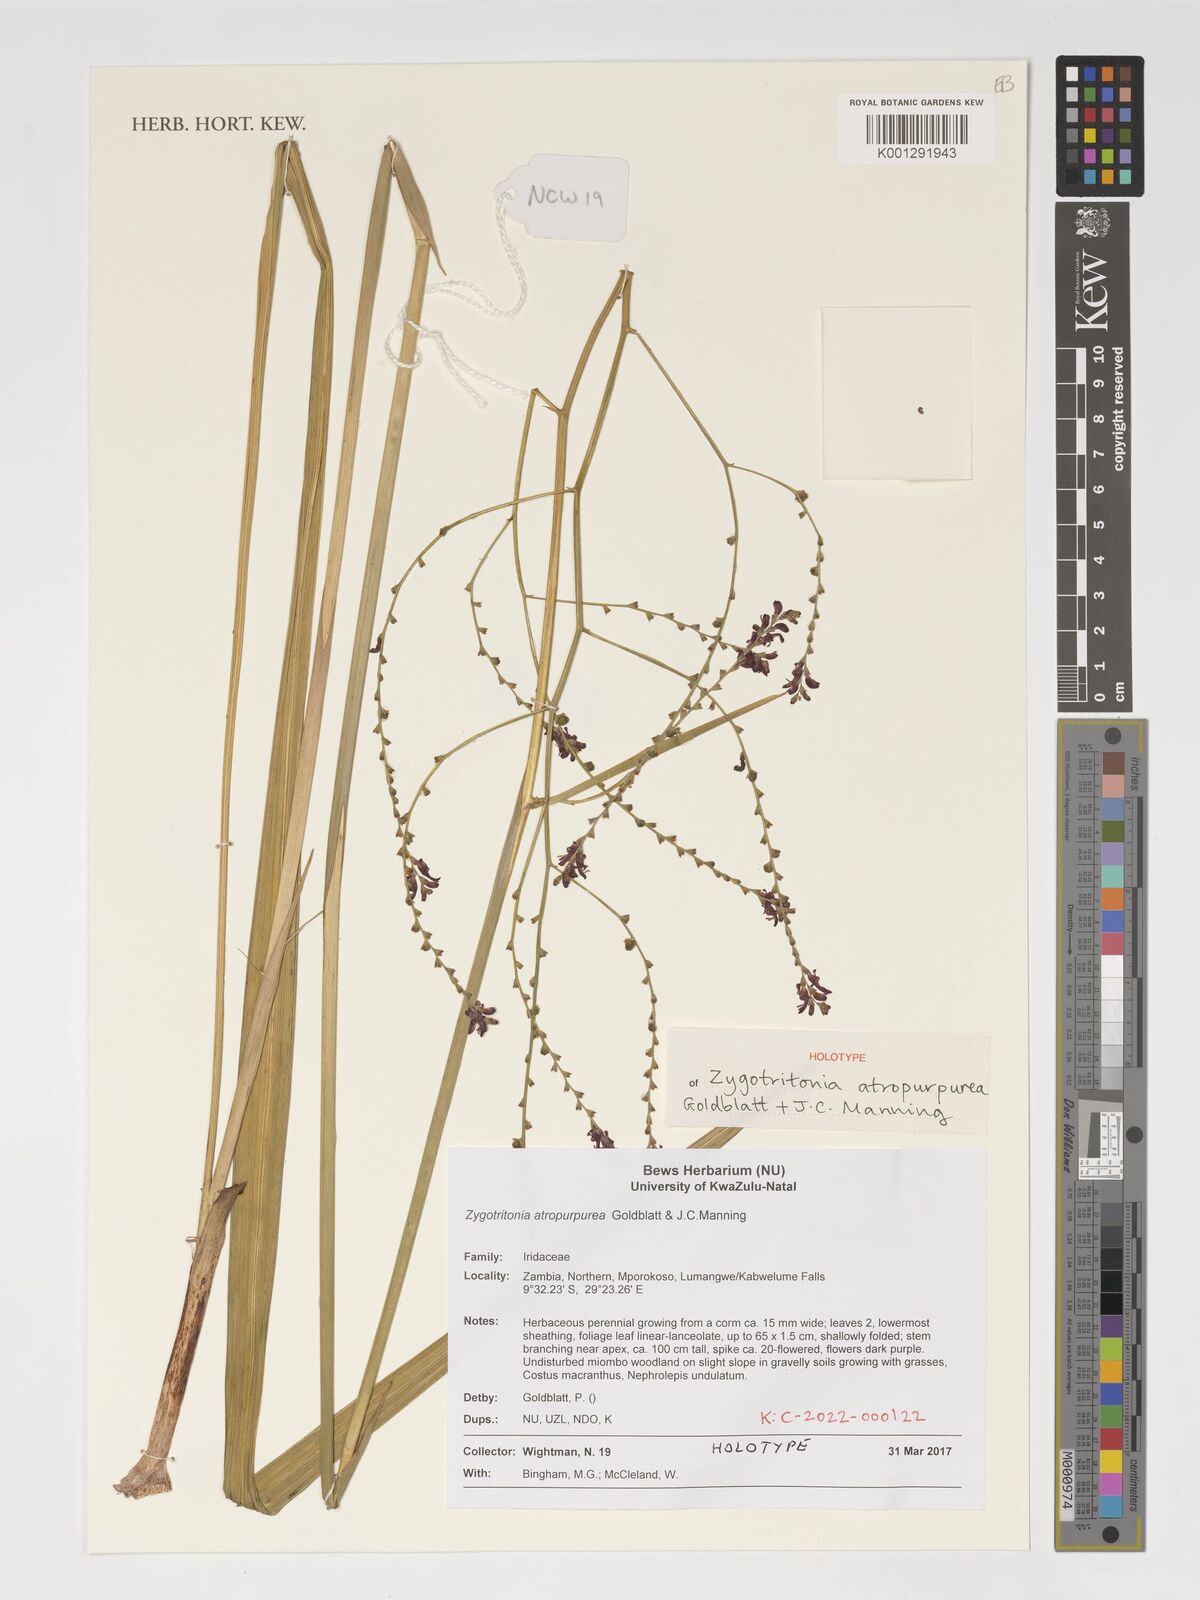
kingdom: Plantae
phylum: Tracheophyta
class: Liliopsida
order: Asparagales
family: Iridaceae
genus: Zygotritonia
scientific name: Zygotritonia atropurpurea
